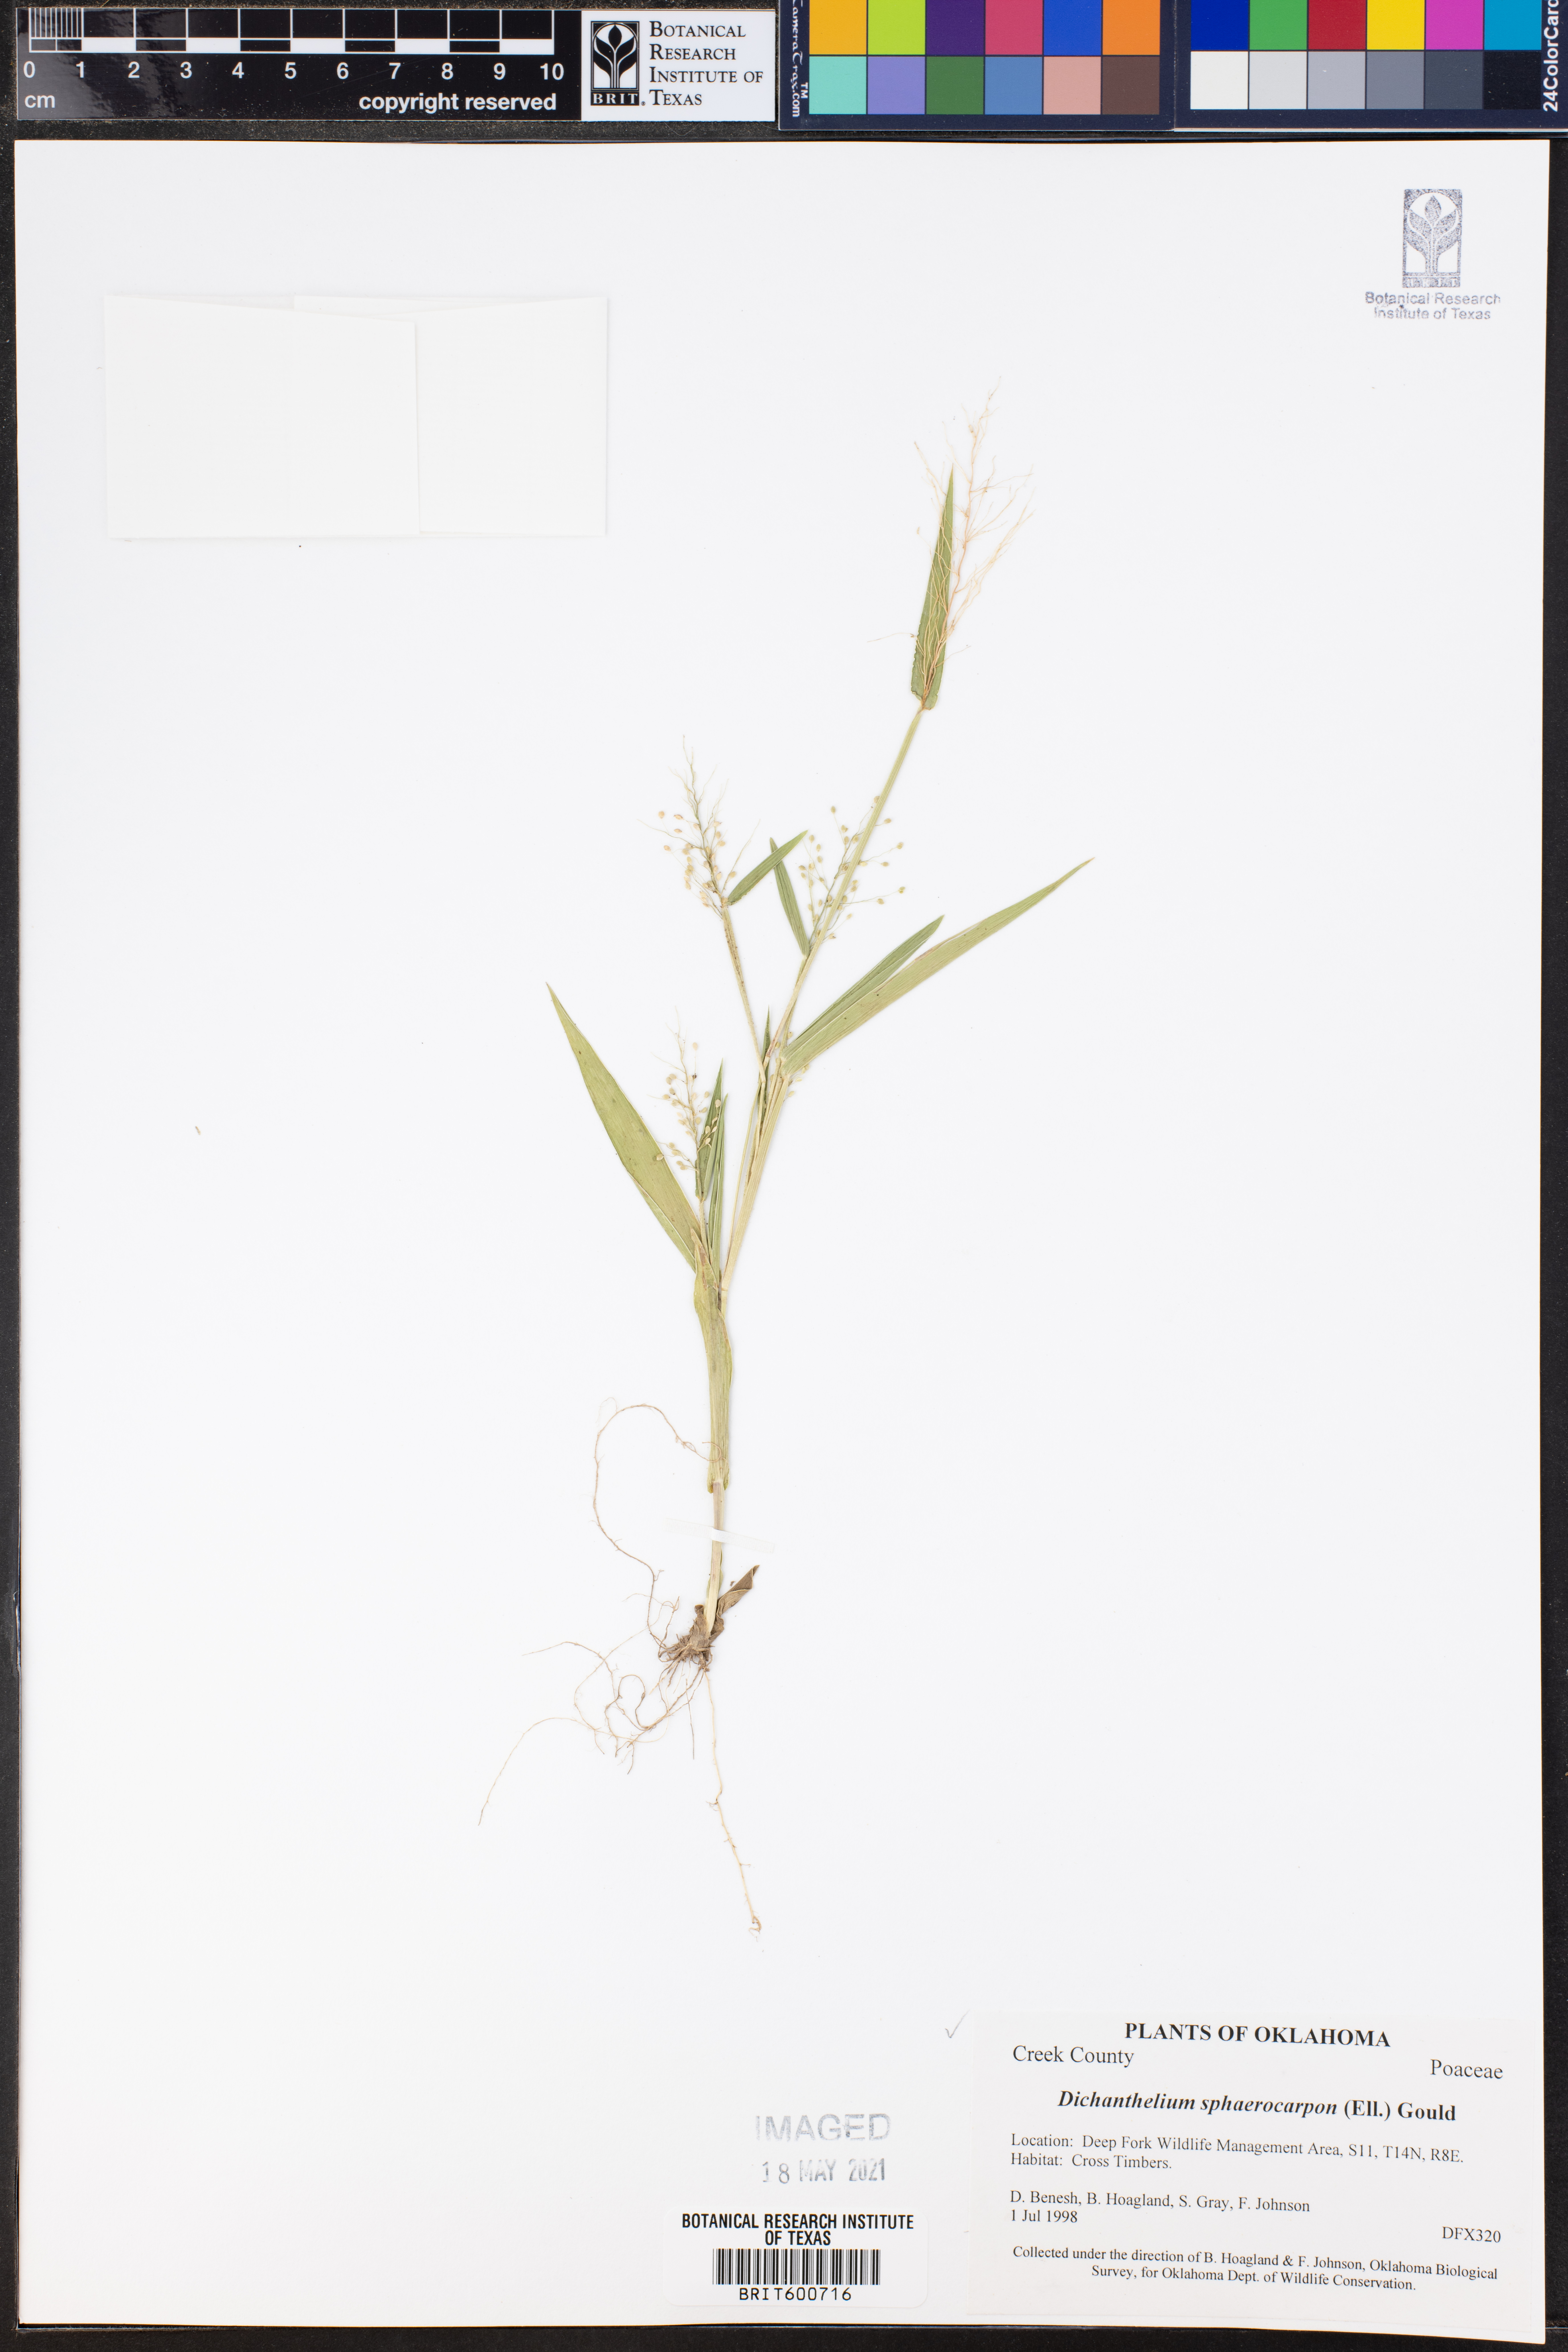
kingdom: Plantae
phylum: Tracheophyta
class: Liliopsida
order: Poales
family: Poaceae
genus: Dichanthelium
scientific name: Dichanthelium sphaerocarpon
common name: Round-fruited panicgrass
